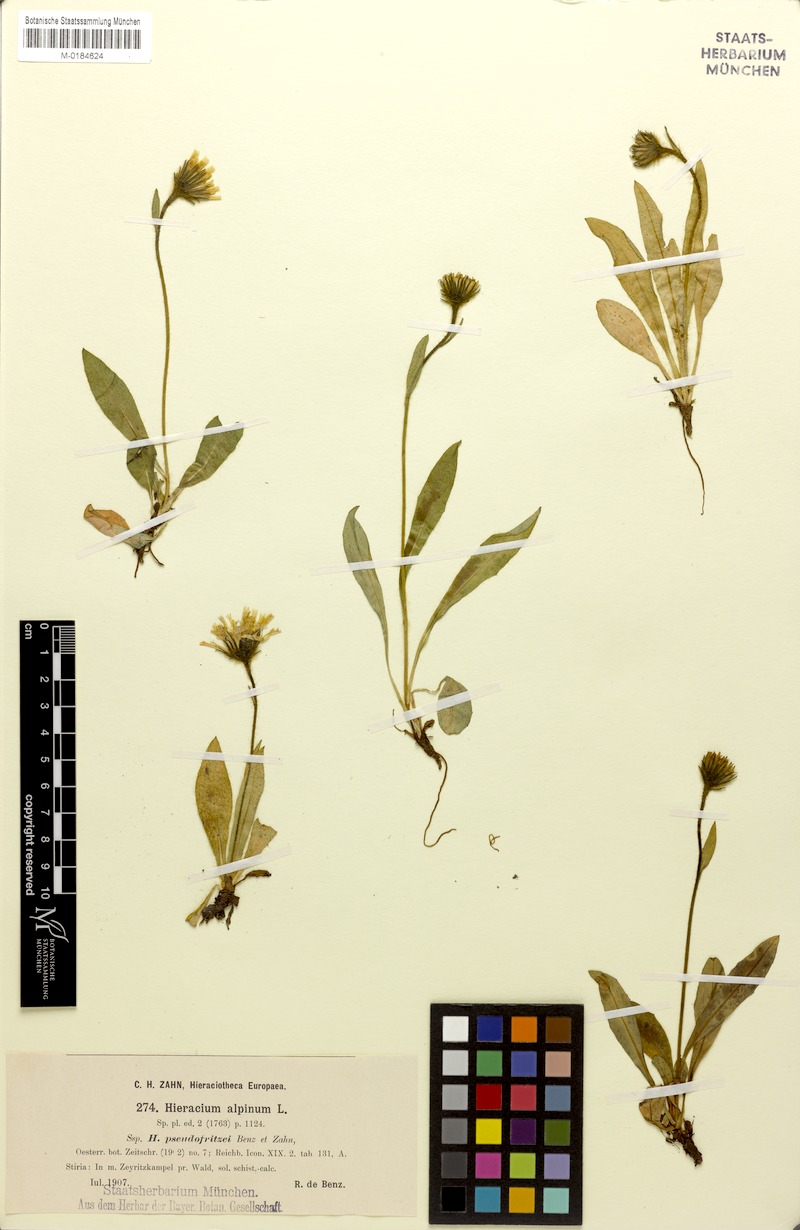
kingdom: Plantae
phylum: Tracheophyta
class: Magnoliopsida
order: Asterales
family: Asteraceae
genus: Hieracium
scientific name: Hieracium pseudofritzei
